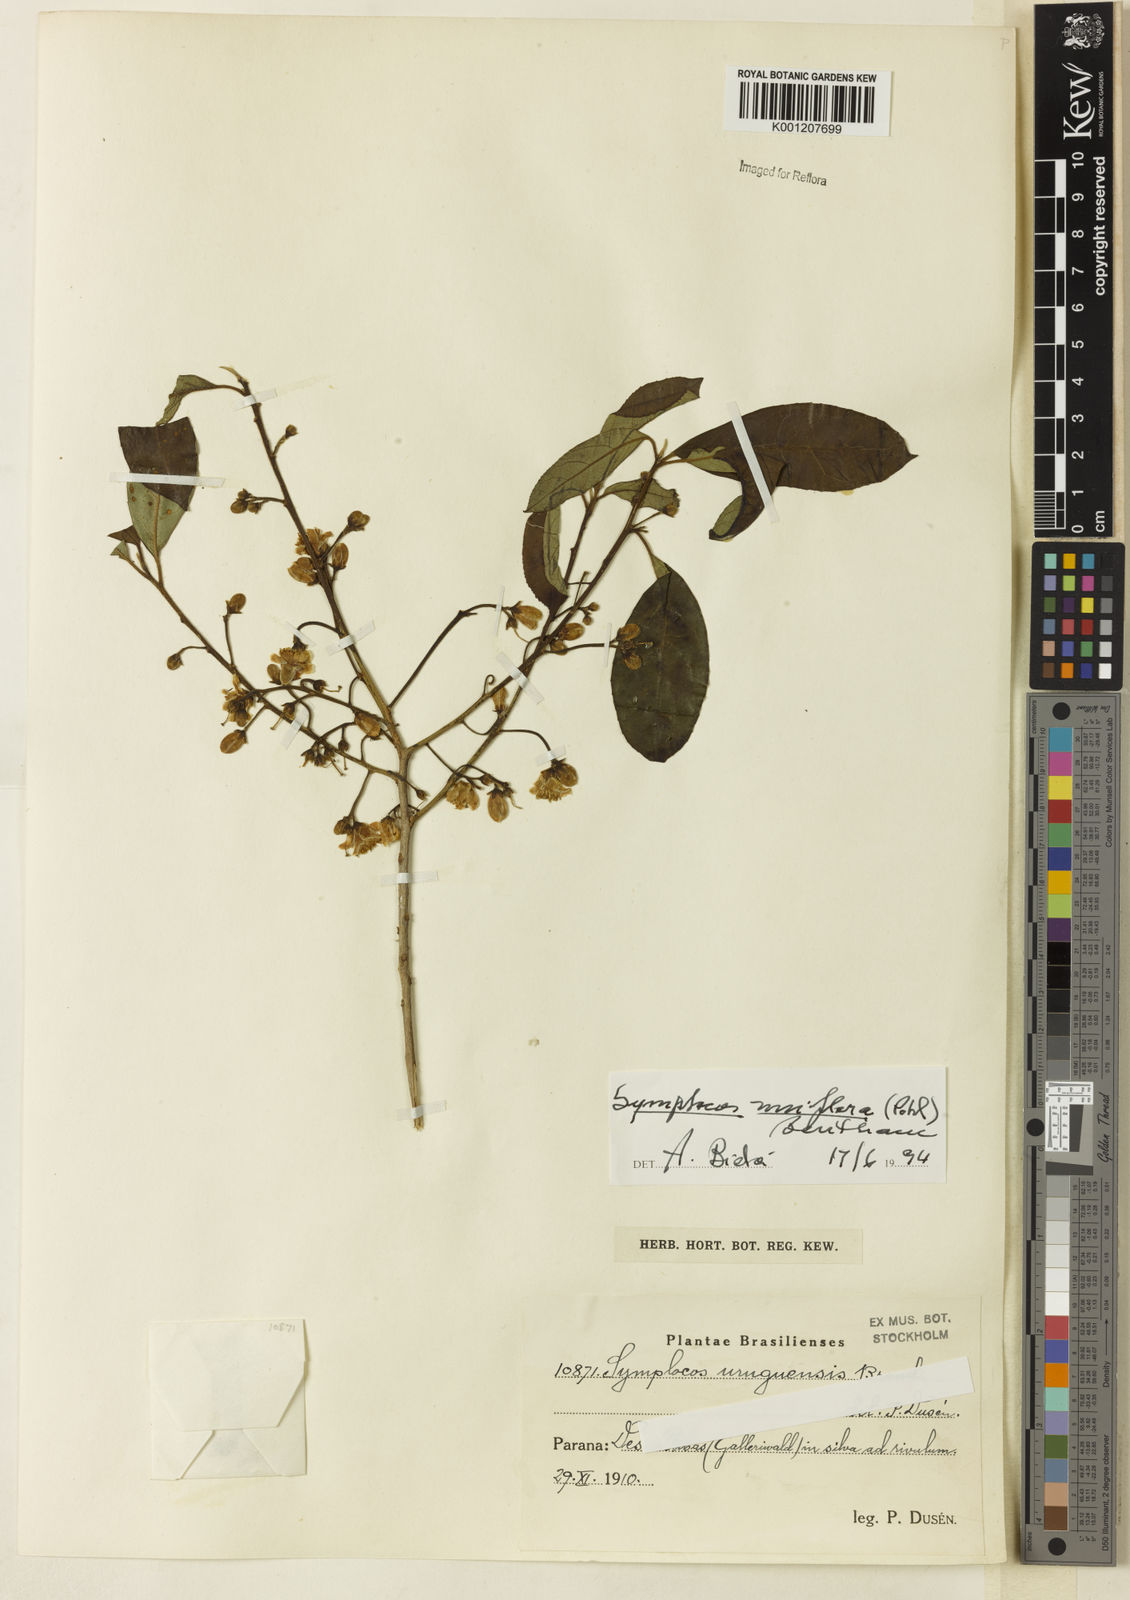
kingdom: Plantae
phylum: Tracheophyta
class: Magnoliopsida
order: Ericales
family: Symplocaceae
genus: Symplocos
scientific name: Symplocos uniflora
